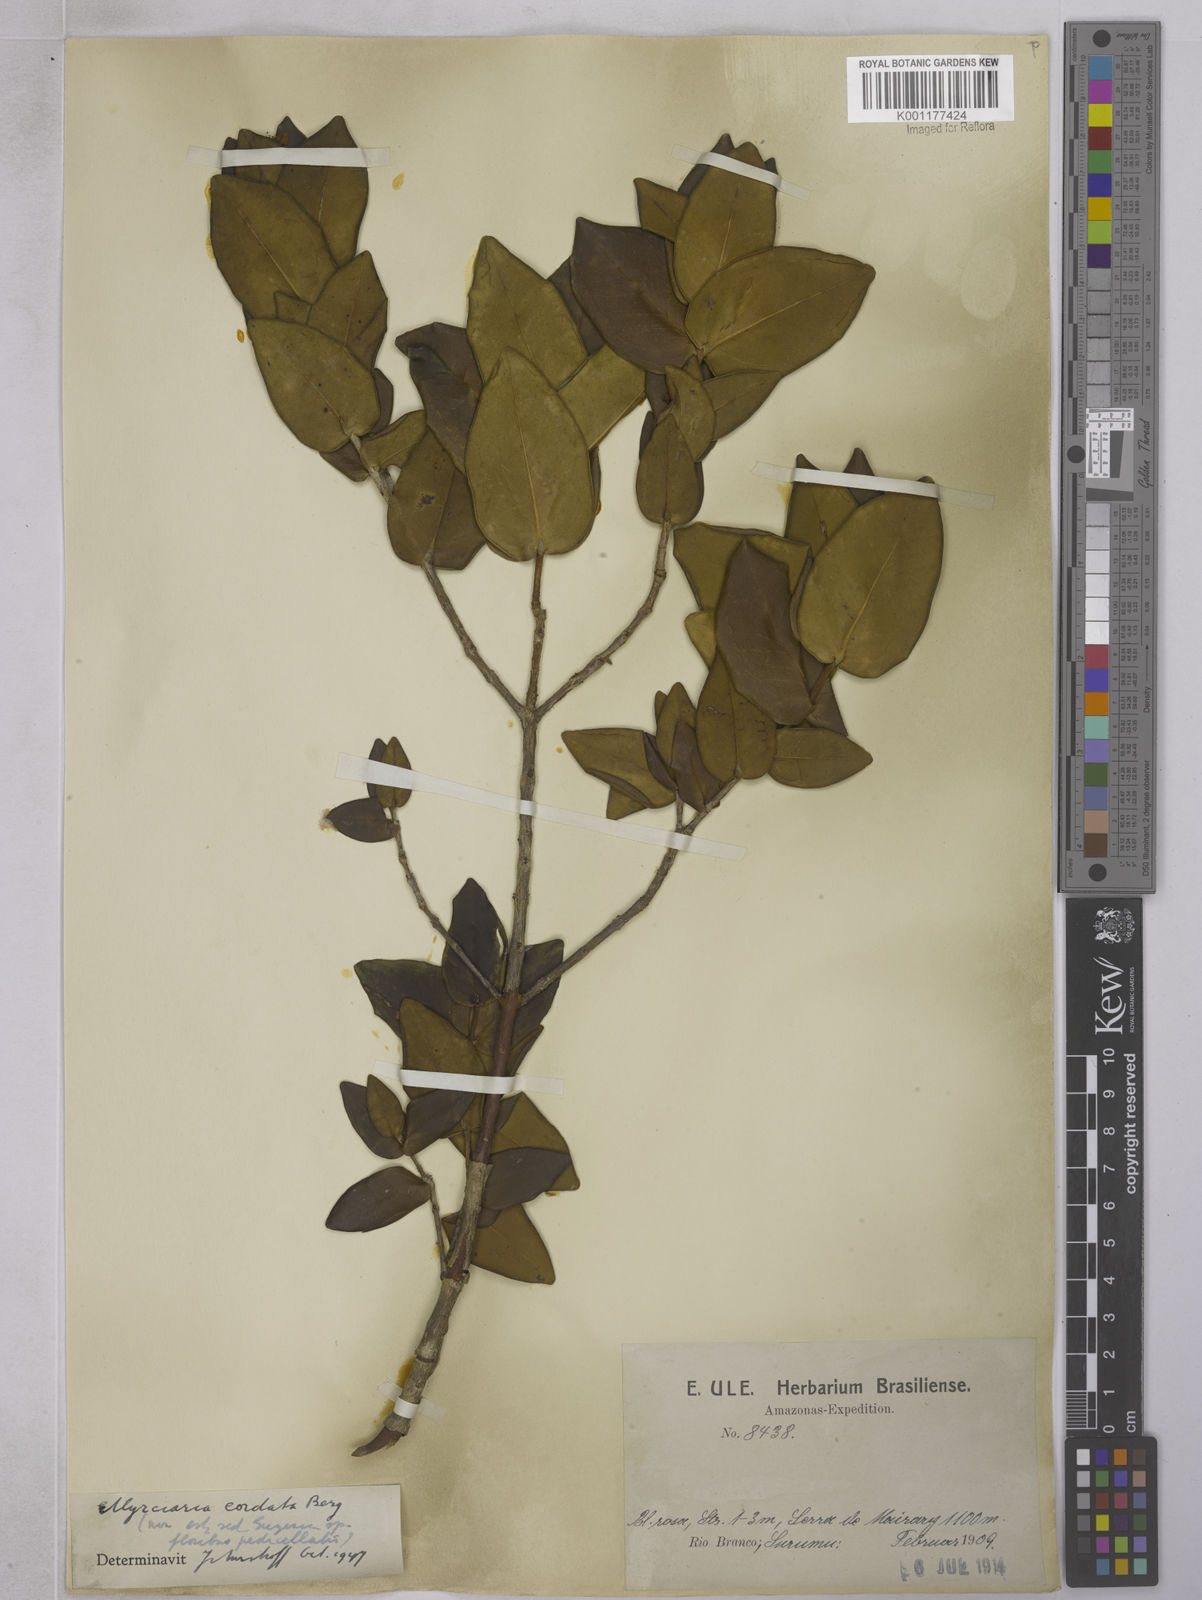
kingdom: Plantae
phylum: Tracheophyta
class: Magnoliopsida
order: Myrtales
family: Myrtaceae
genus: Eugenia
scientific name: Eugenia
